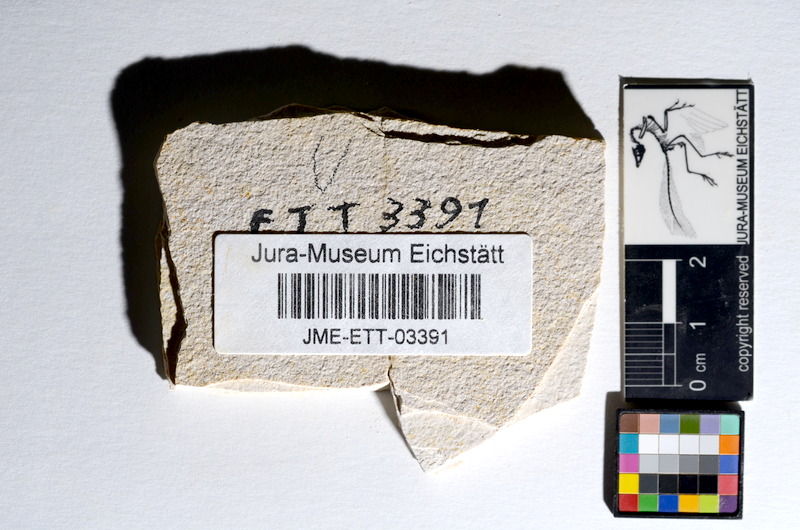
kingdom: Animalia
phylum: Chordata
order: Salmoniformes
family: Orthogonikleithridae
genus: Orthogonikleithrus
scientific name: Orthogonikleithrus hoelli
